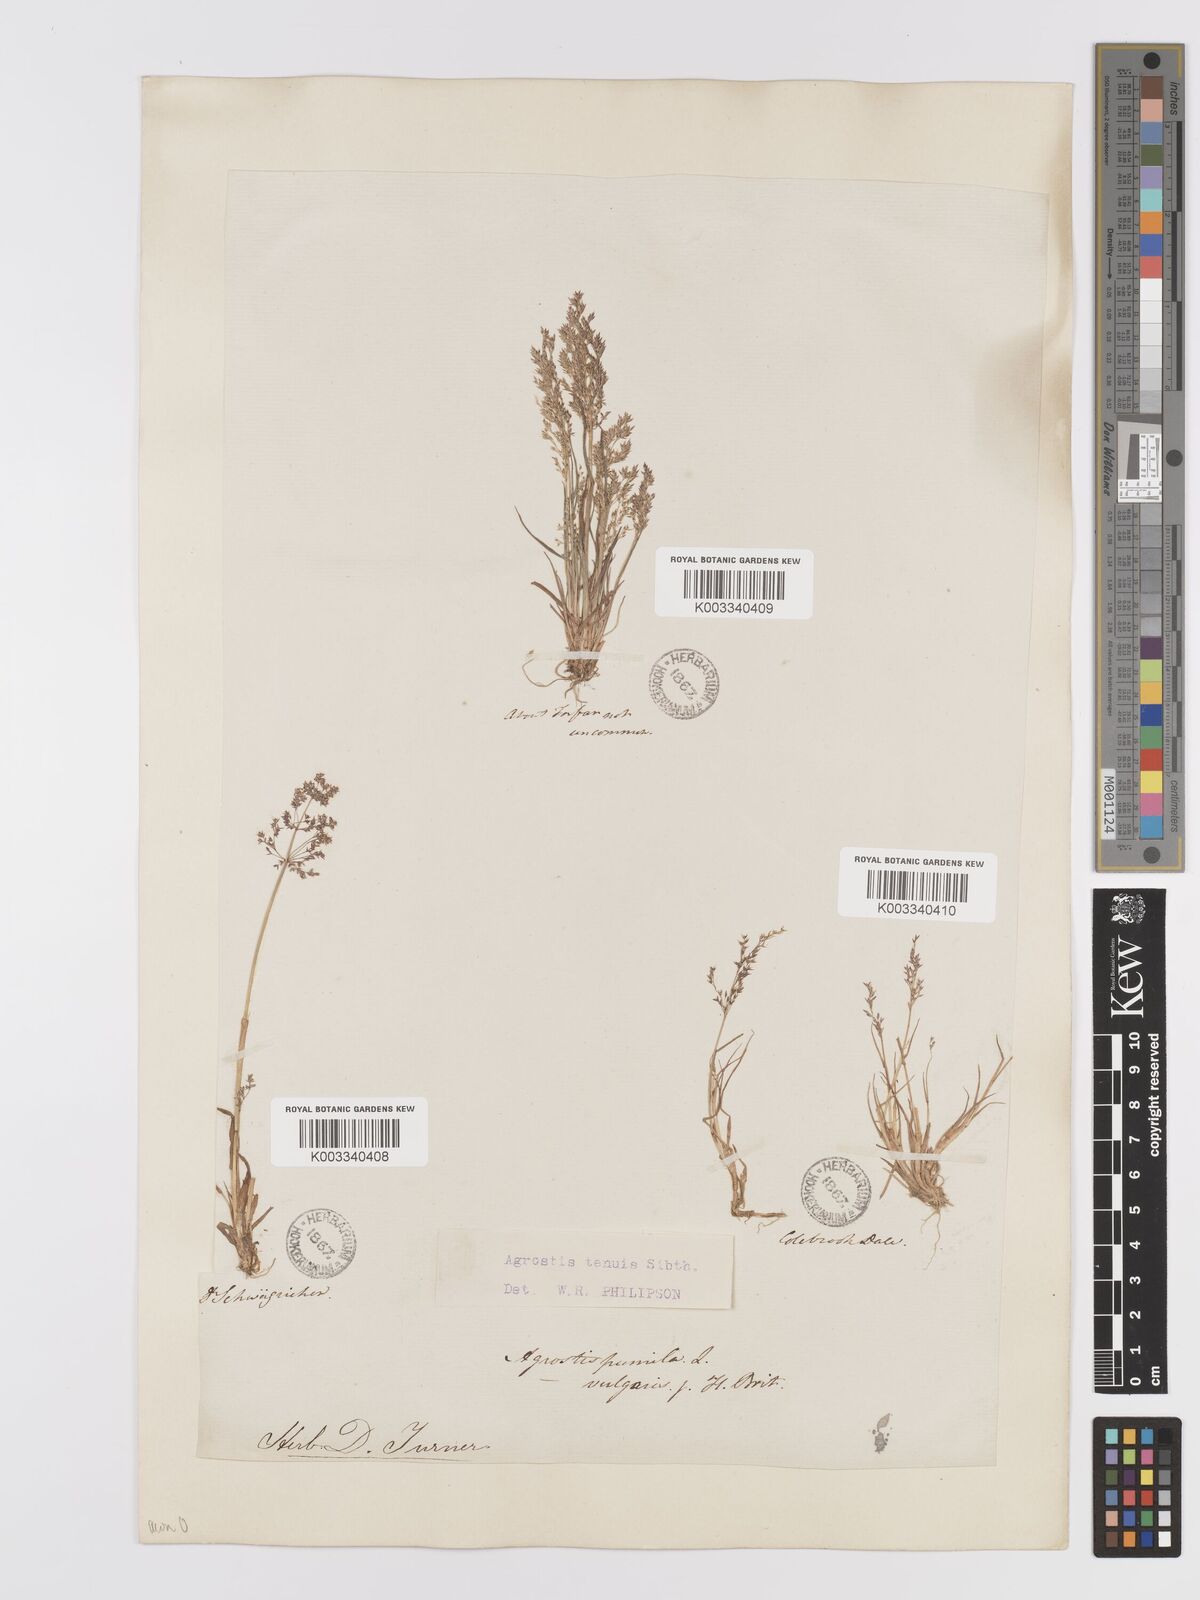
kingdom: Plantae
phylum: Tracheophyta
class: Liliopsida
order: Poales
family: Poaceae
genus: Agrostis
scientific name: Agrostis capillaris
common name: Colonial bentgrass
